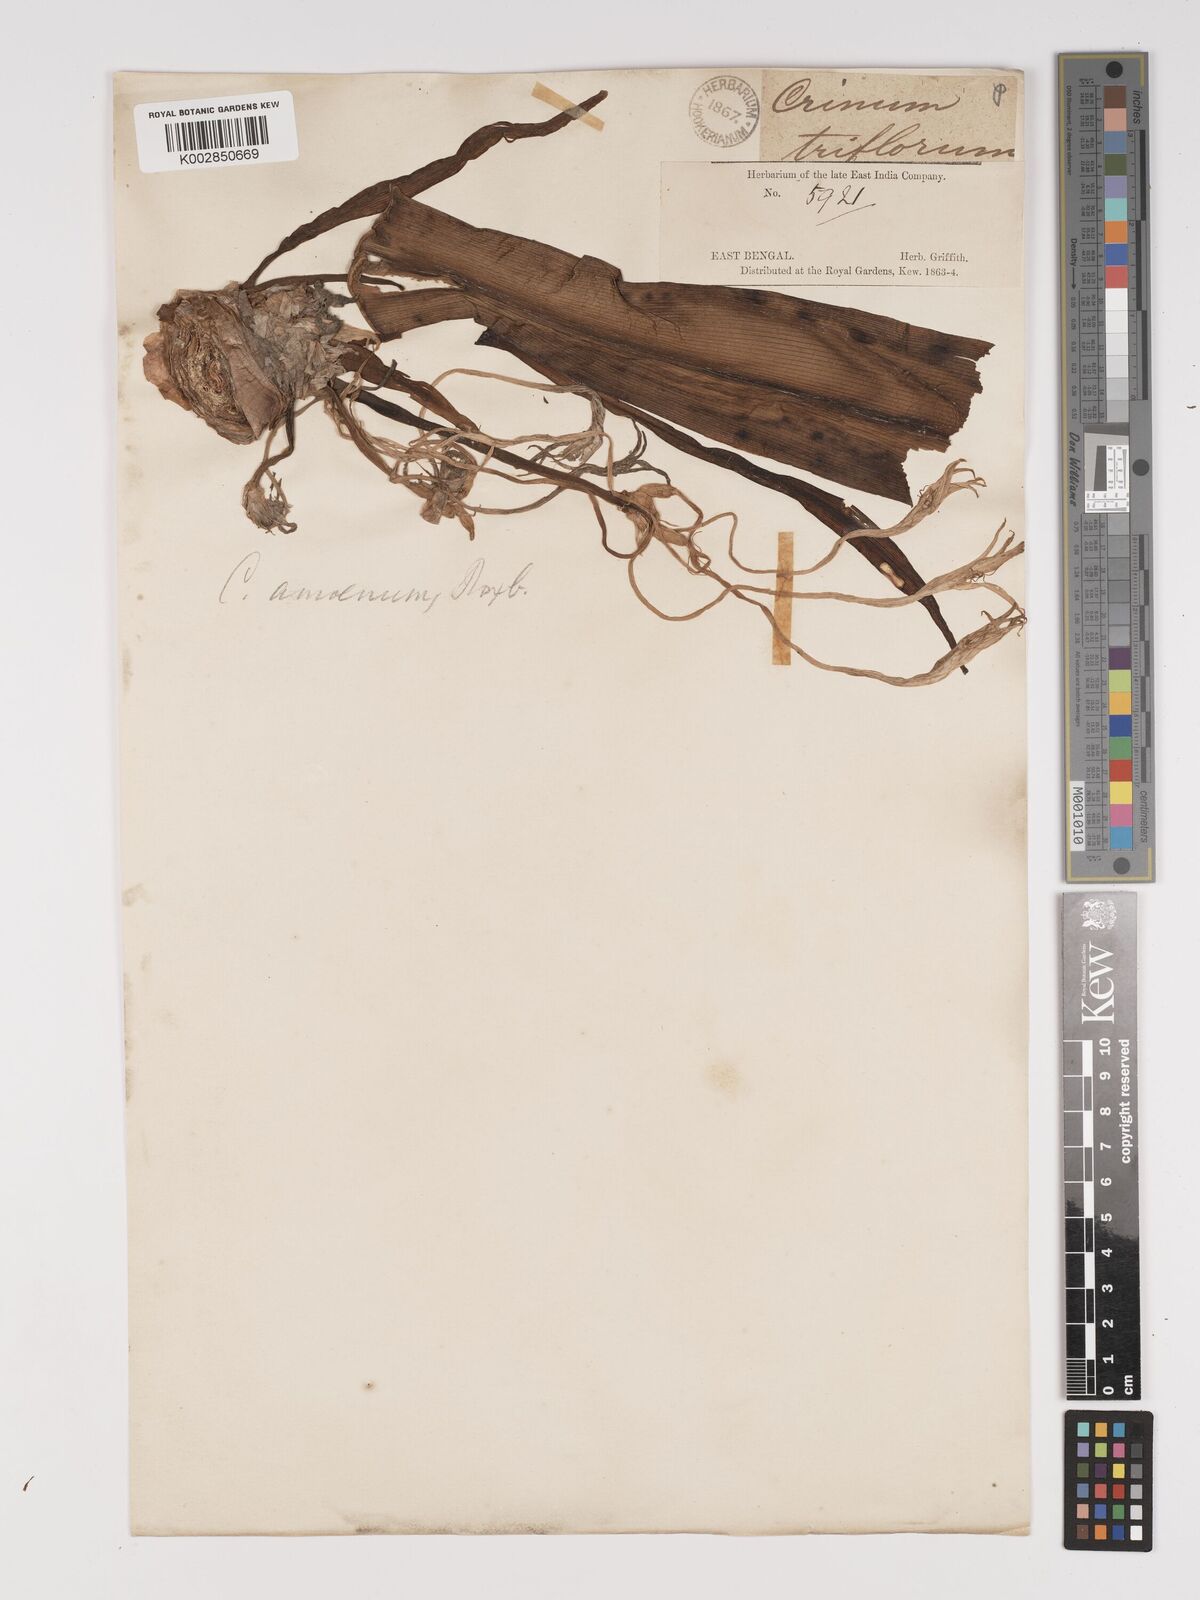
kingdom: Plantae
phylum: Tracheophyta
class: Liliopsida
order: Asparagales
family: Amaryllidaceae
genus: Crinum
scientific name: Crinum amoenum
